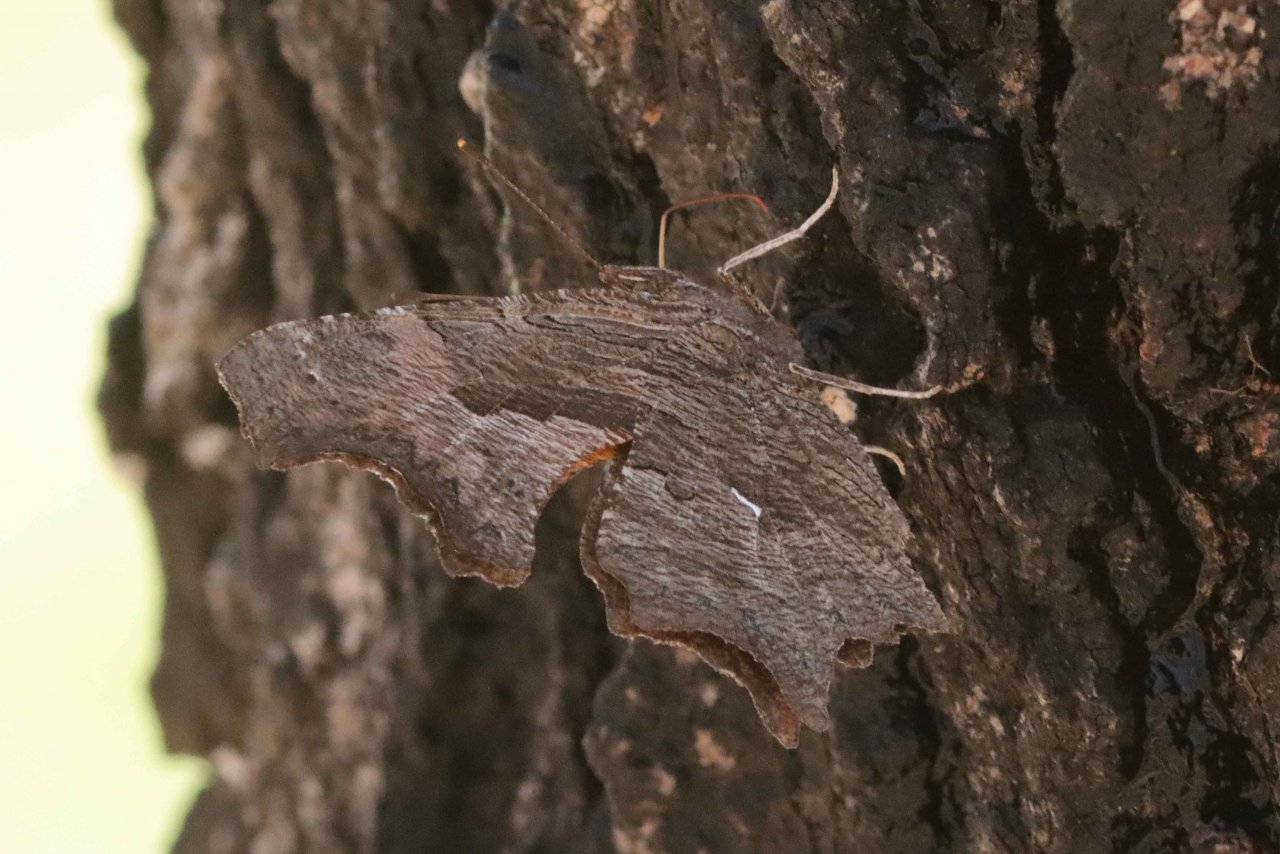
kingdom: Animalia
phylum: Arthropoda
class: Insecta
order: Lepidoptera
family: Nymphalidae
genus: Polygonia
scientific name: Polygonia progne
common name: Gray Comma
